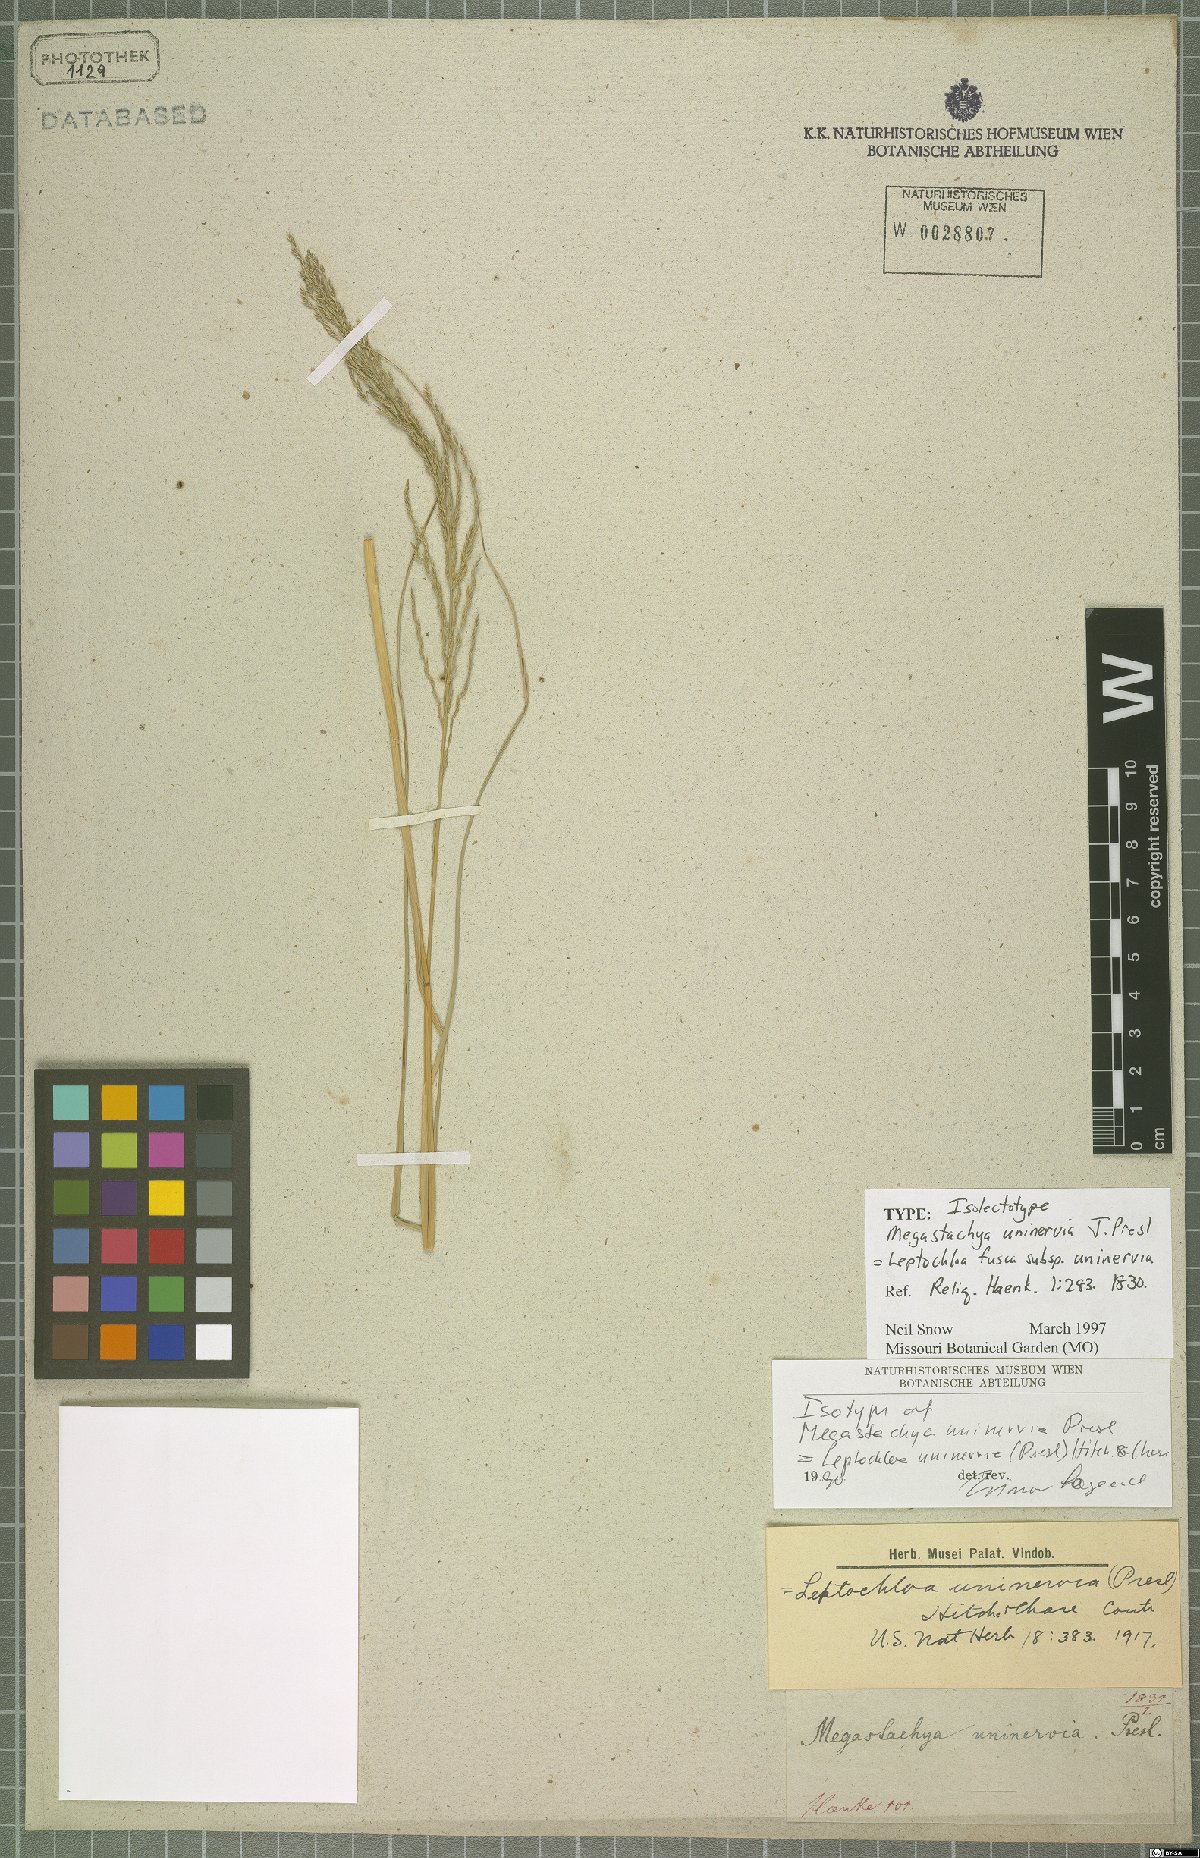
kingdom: Plantae
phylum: Tracheophyta
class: Liliopsida
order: Poales
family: Poaceae
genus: Diplachne
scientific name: Diplachne fusca
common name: Brown beetle grass
